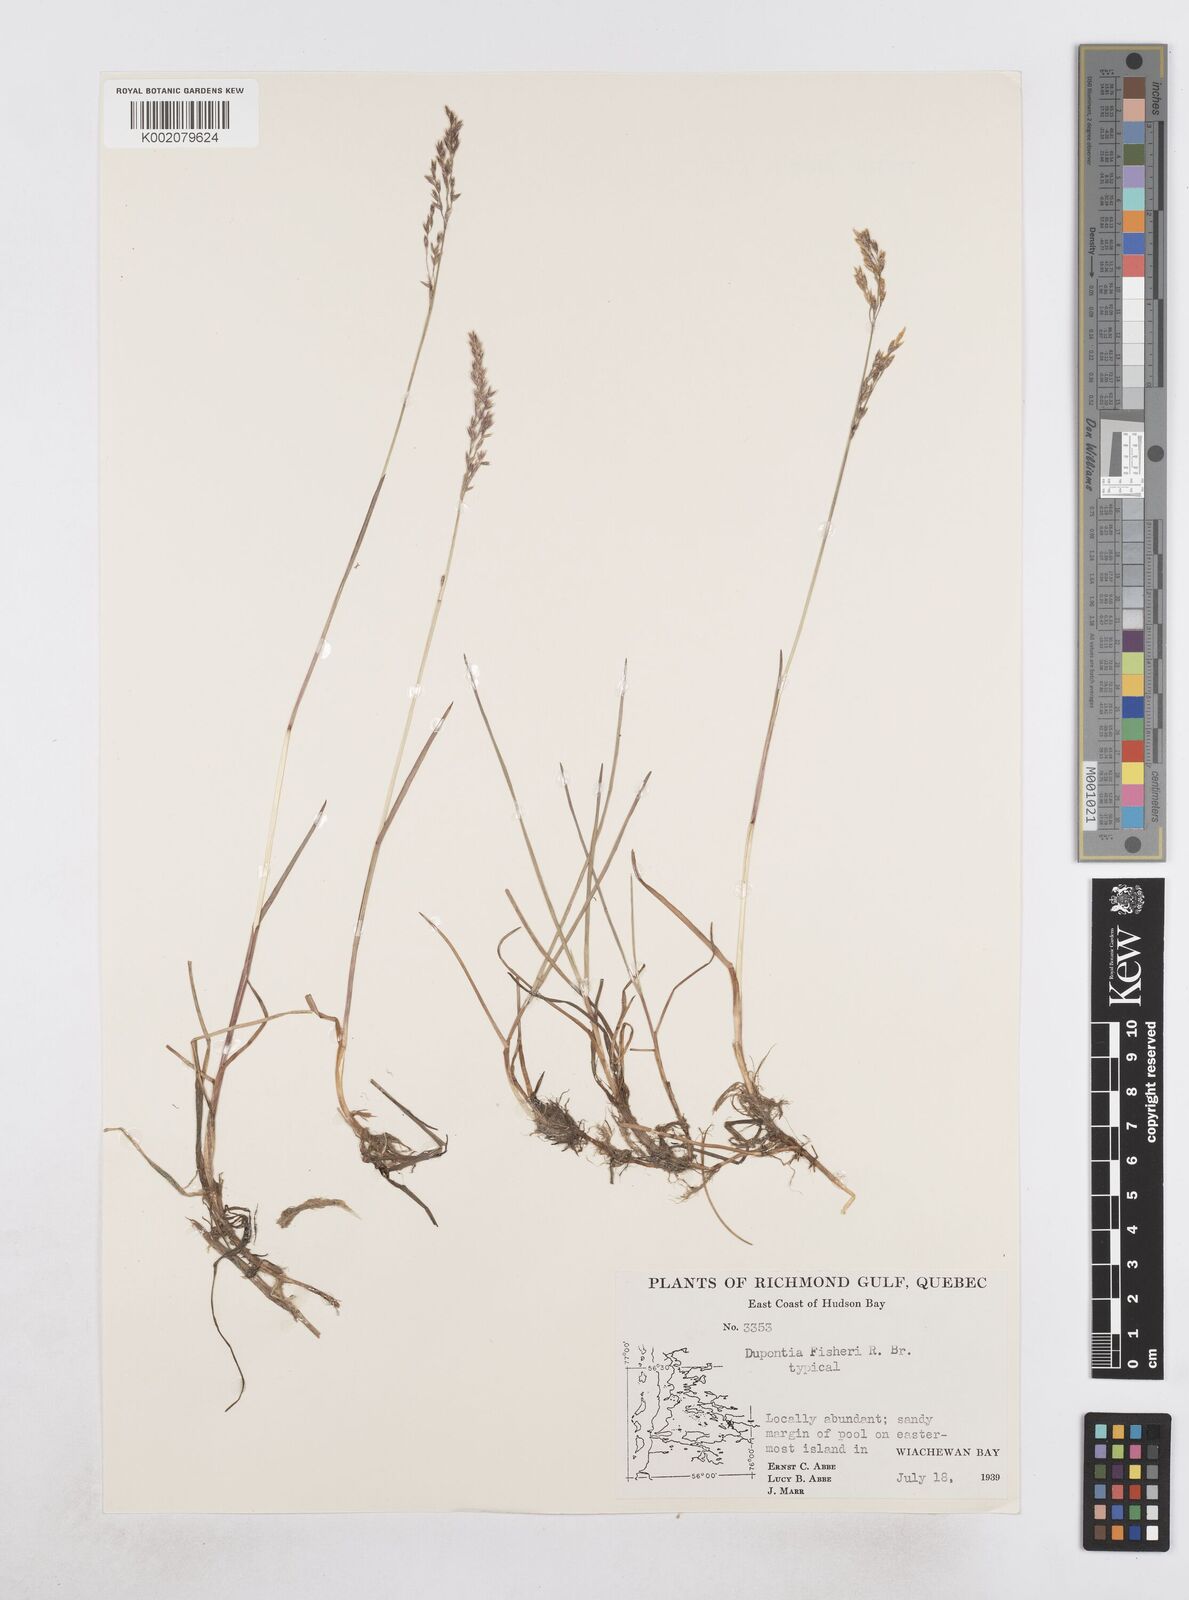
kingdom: Plantae
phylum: Tracheophyta
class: Liliopsida
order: Poales
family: Poaceae
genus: Dupontia
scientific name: Dupontia fisheri
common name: Tundra grass
